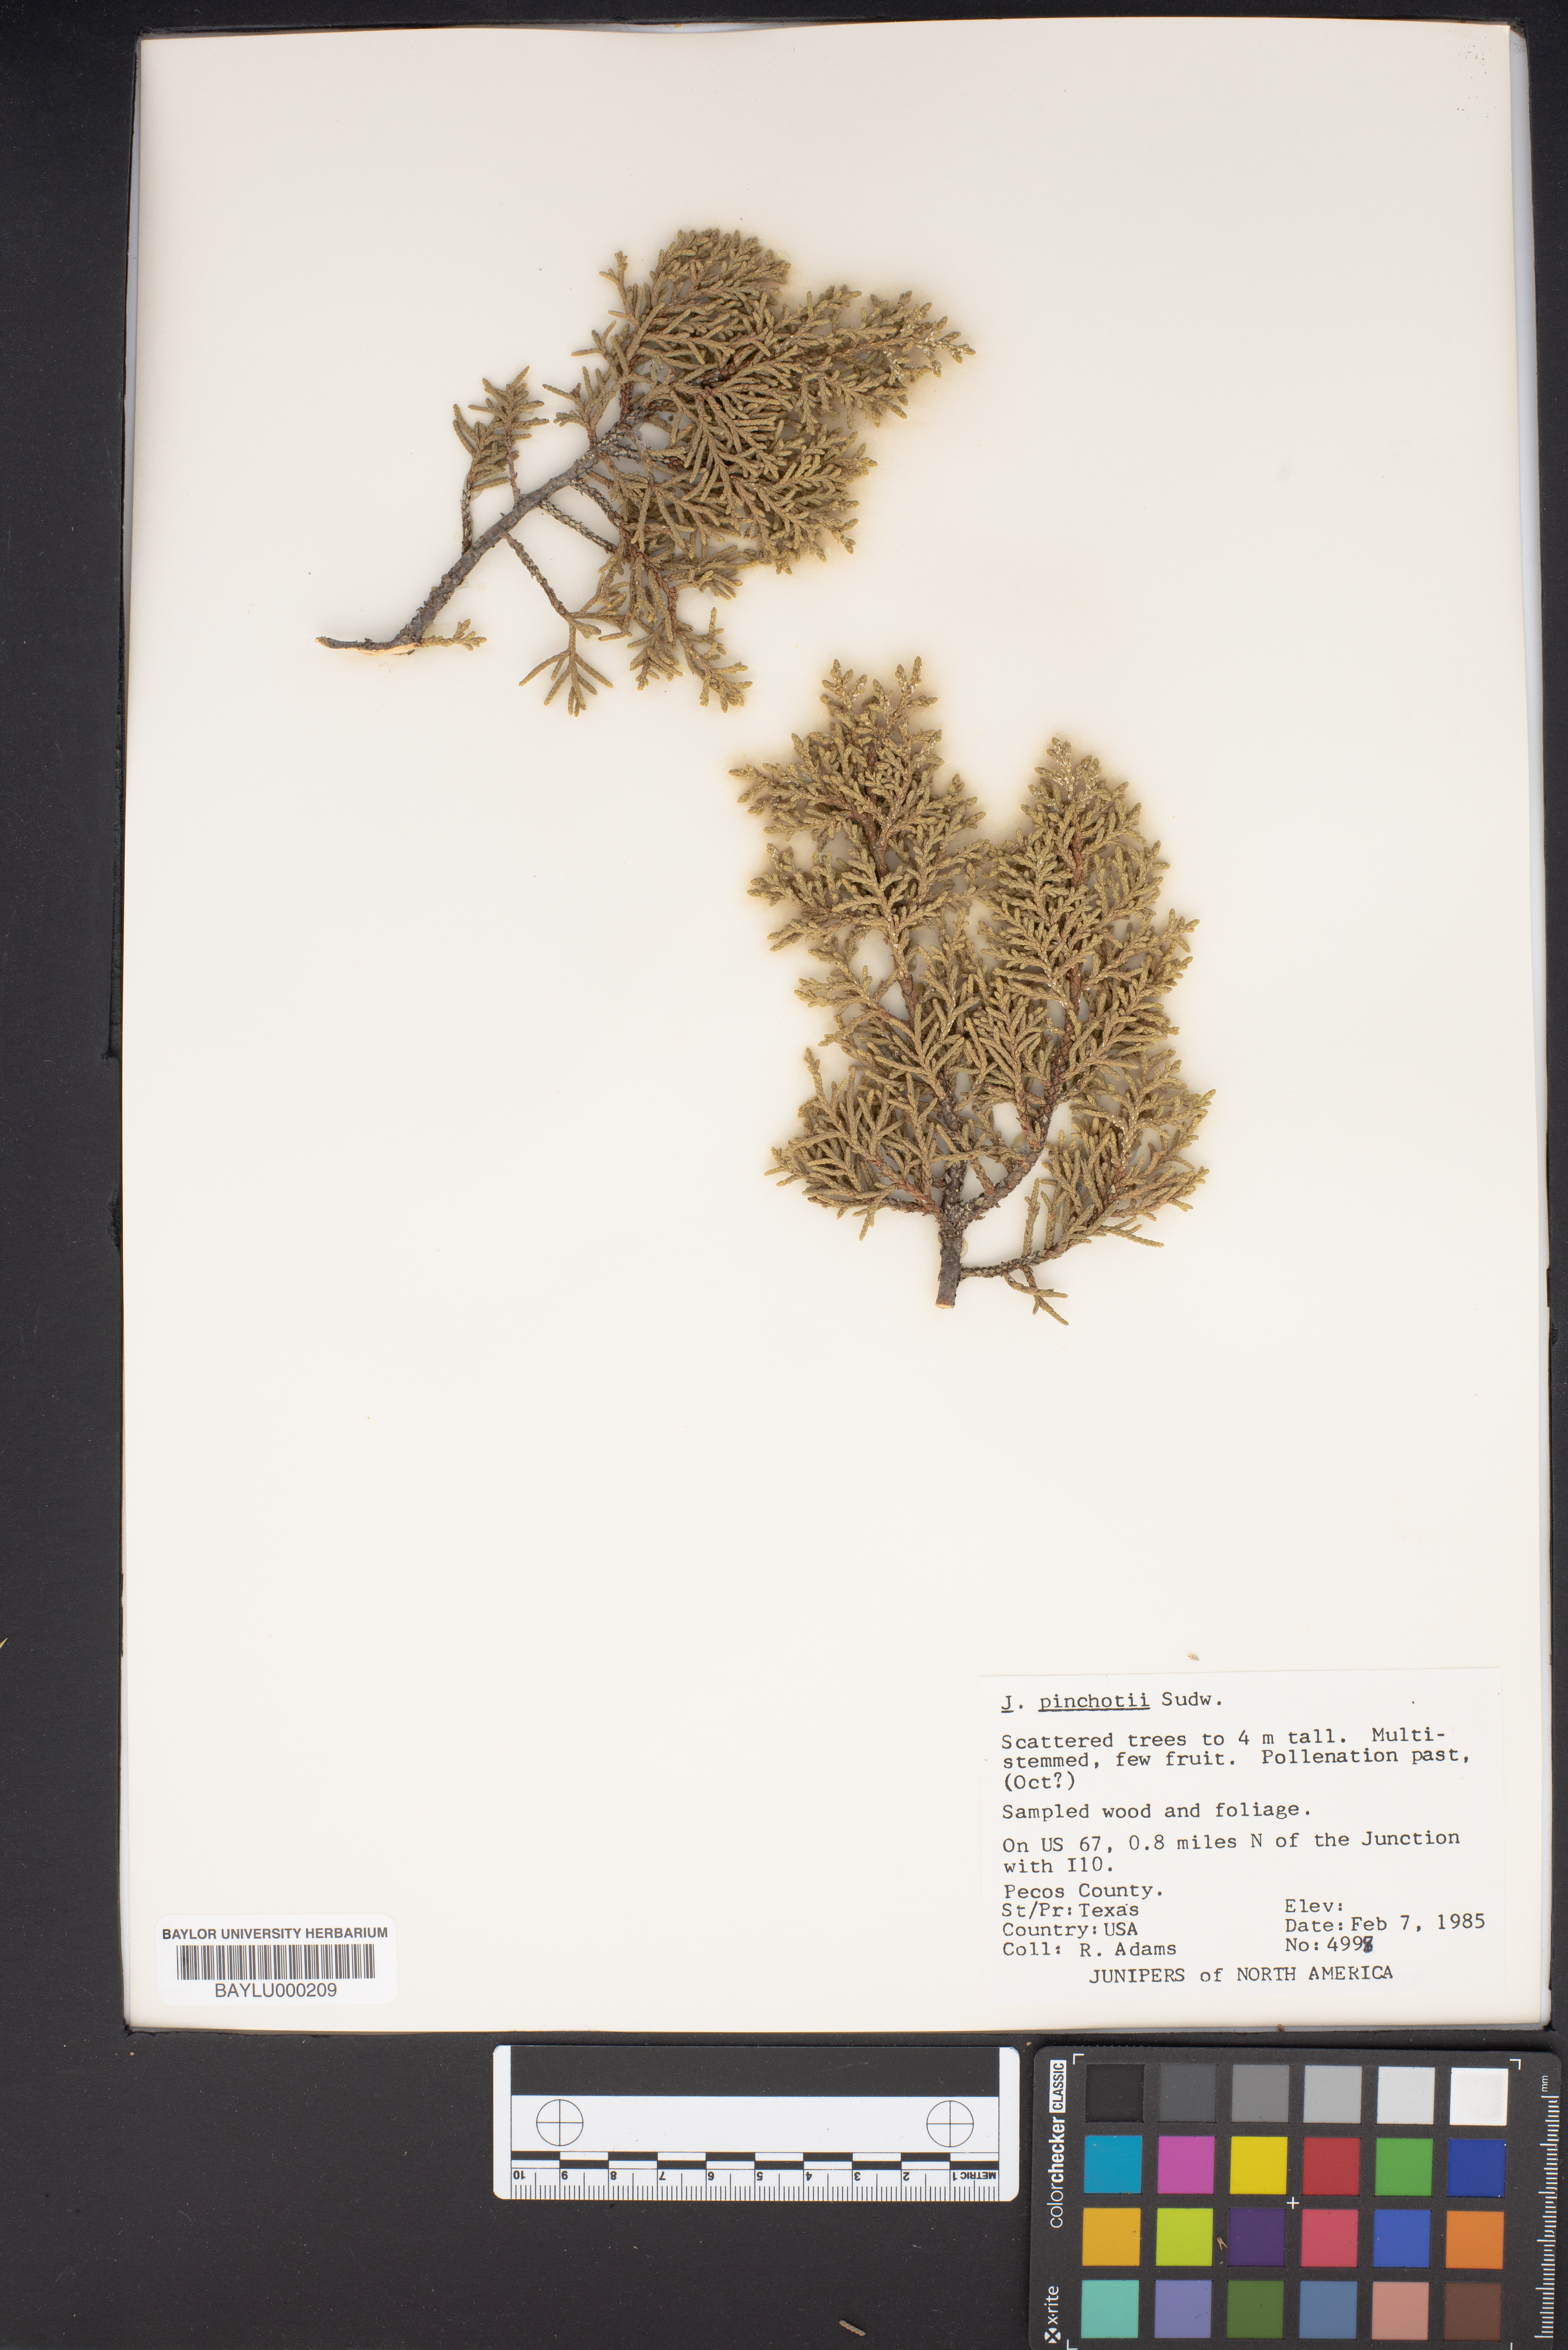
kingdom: Plantae
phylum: Tracheophyta
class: Pinopsida
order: Pinales
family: Cupressaceae
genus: Juniperus
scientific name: Juniperus pinchotii
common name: Pinchot juniper
